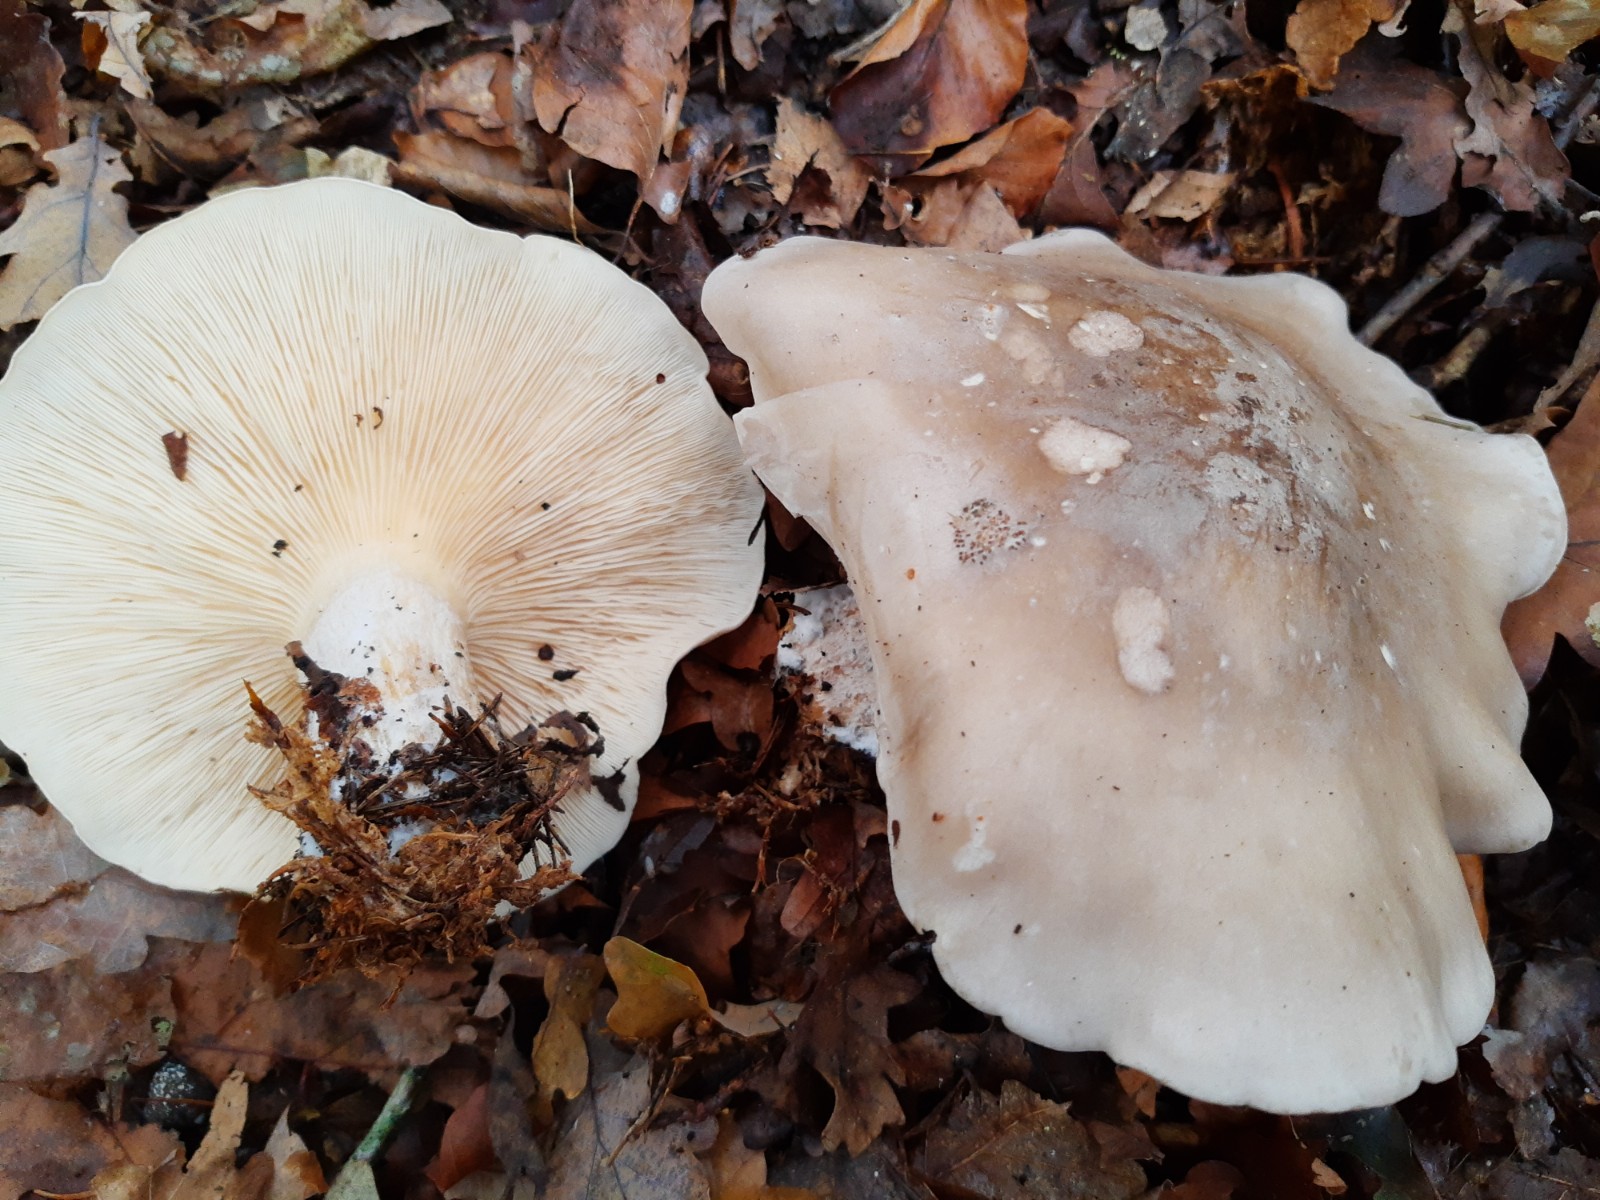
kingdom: Fungi
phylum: Basidiomycota
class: Agaricomycetes
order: Agaricales
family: Tricholomataceae
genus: Clitocybe
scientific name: Clitocybe nebularis
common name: tåge-tragthat
